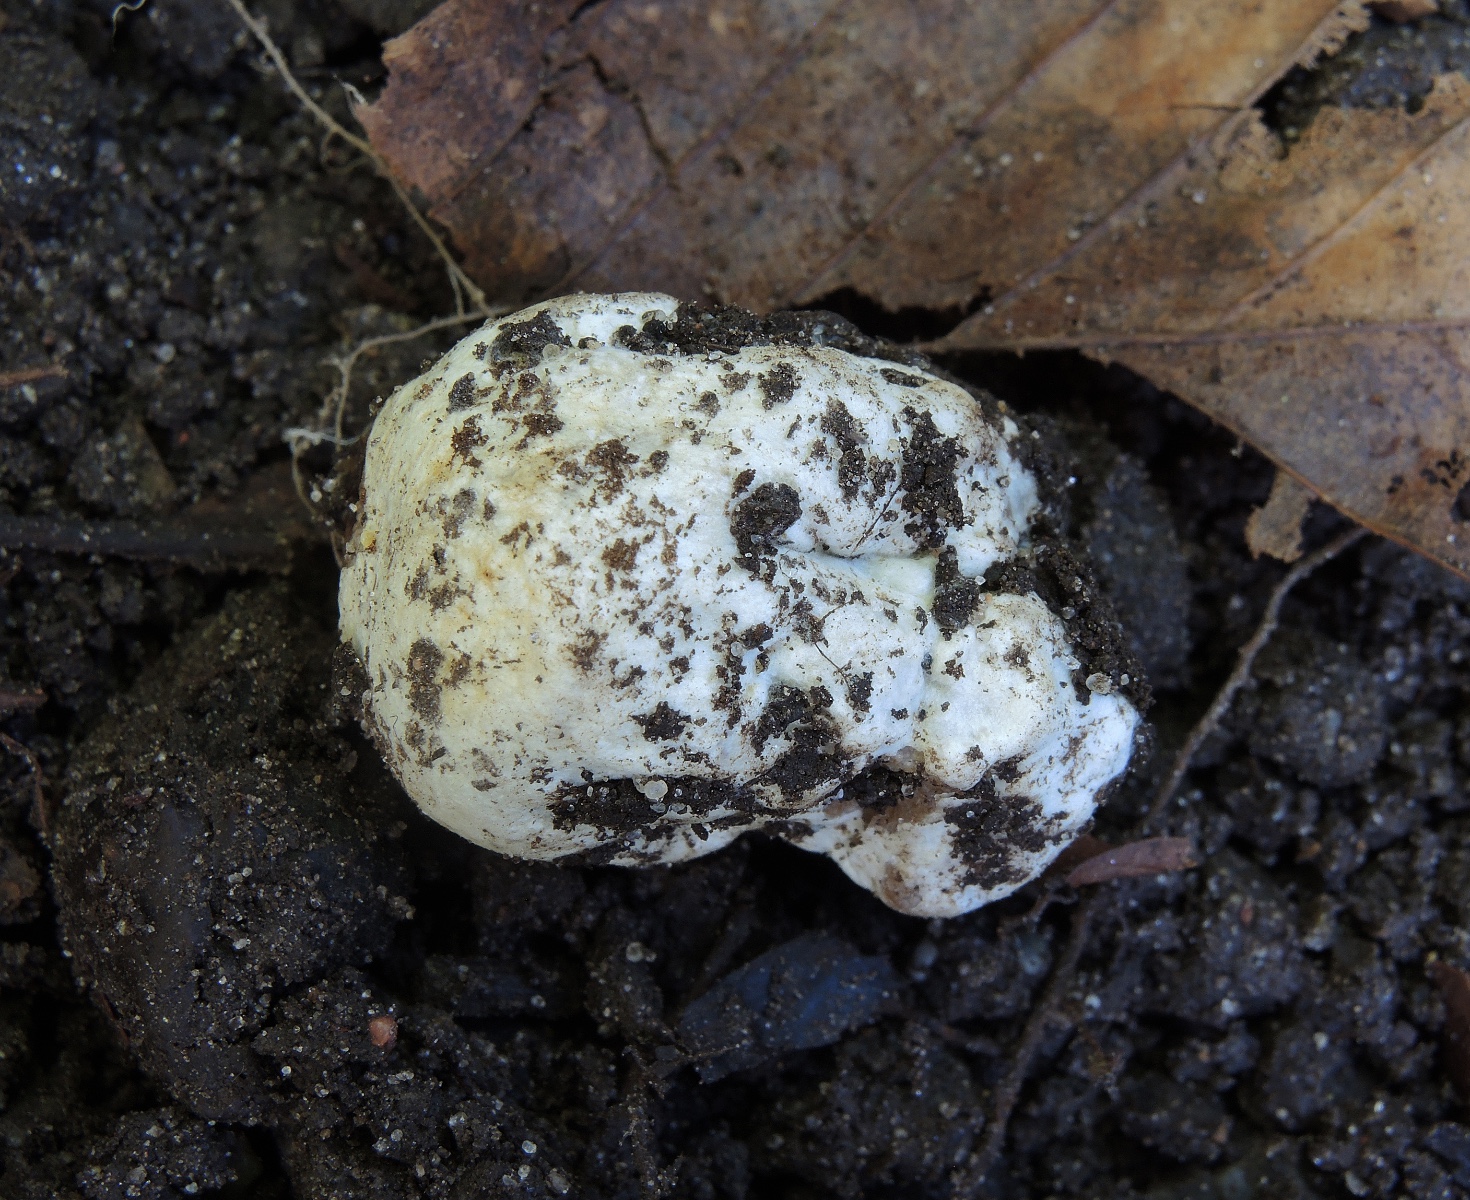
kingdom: Fungi
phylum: Basidiomycota
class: Agaricomycetes
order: Agaricales
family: Cortinariaceae
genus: Protoglossum
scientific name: Protoglossum niveum
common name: hvid knoldtrøffel
